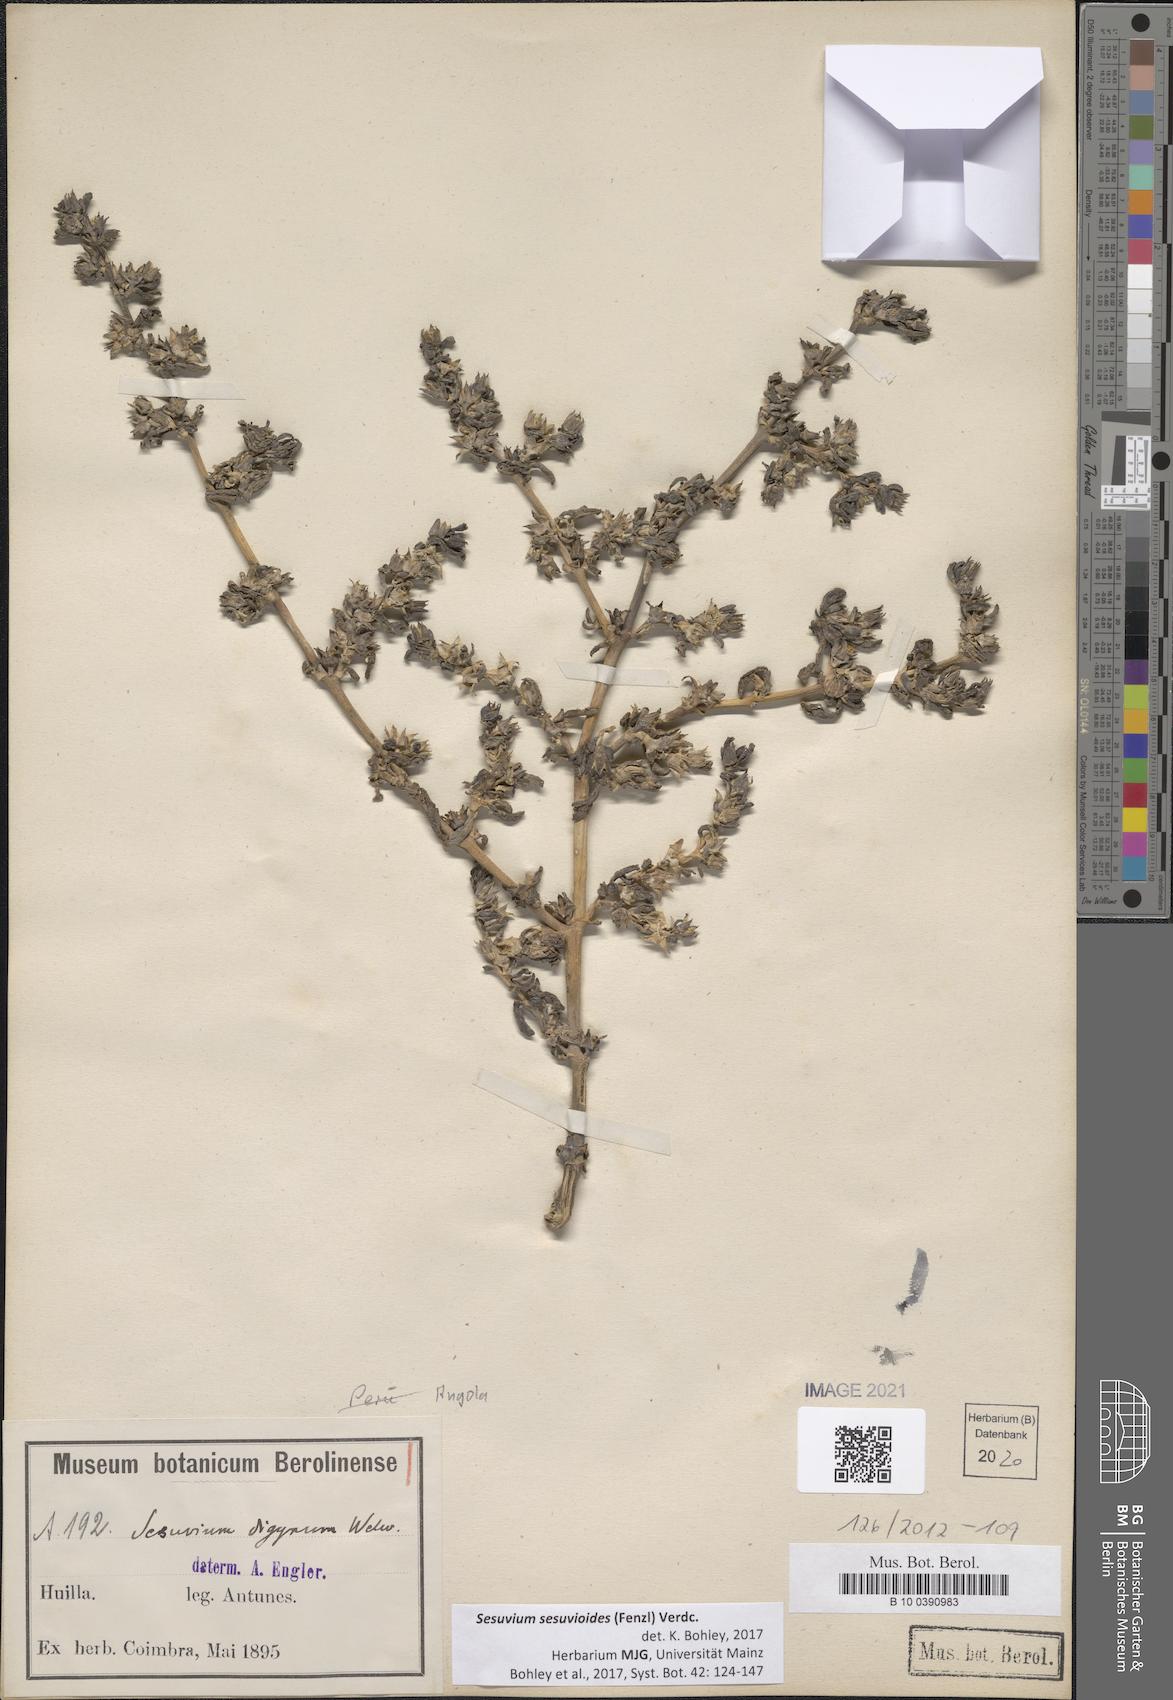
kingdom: Plantae
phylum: Tracheophyta
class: Magnoliopsida
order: Caryophyllales
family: Aizoaceae
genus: Sesuvium
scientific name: Sesuvium sesuvioides
